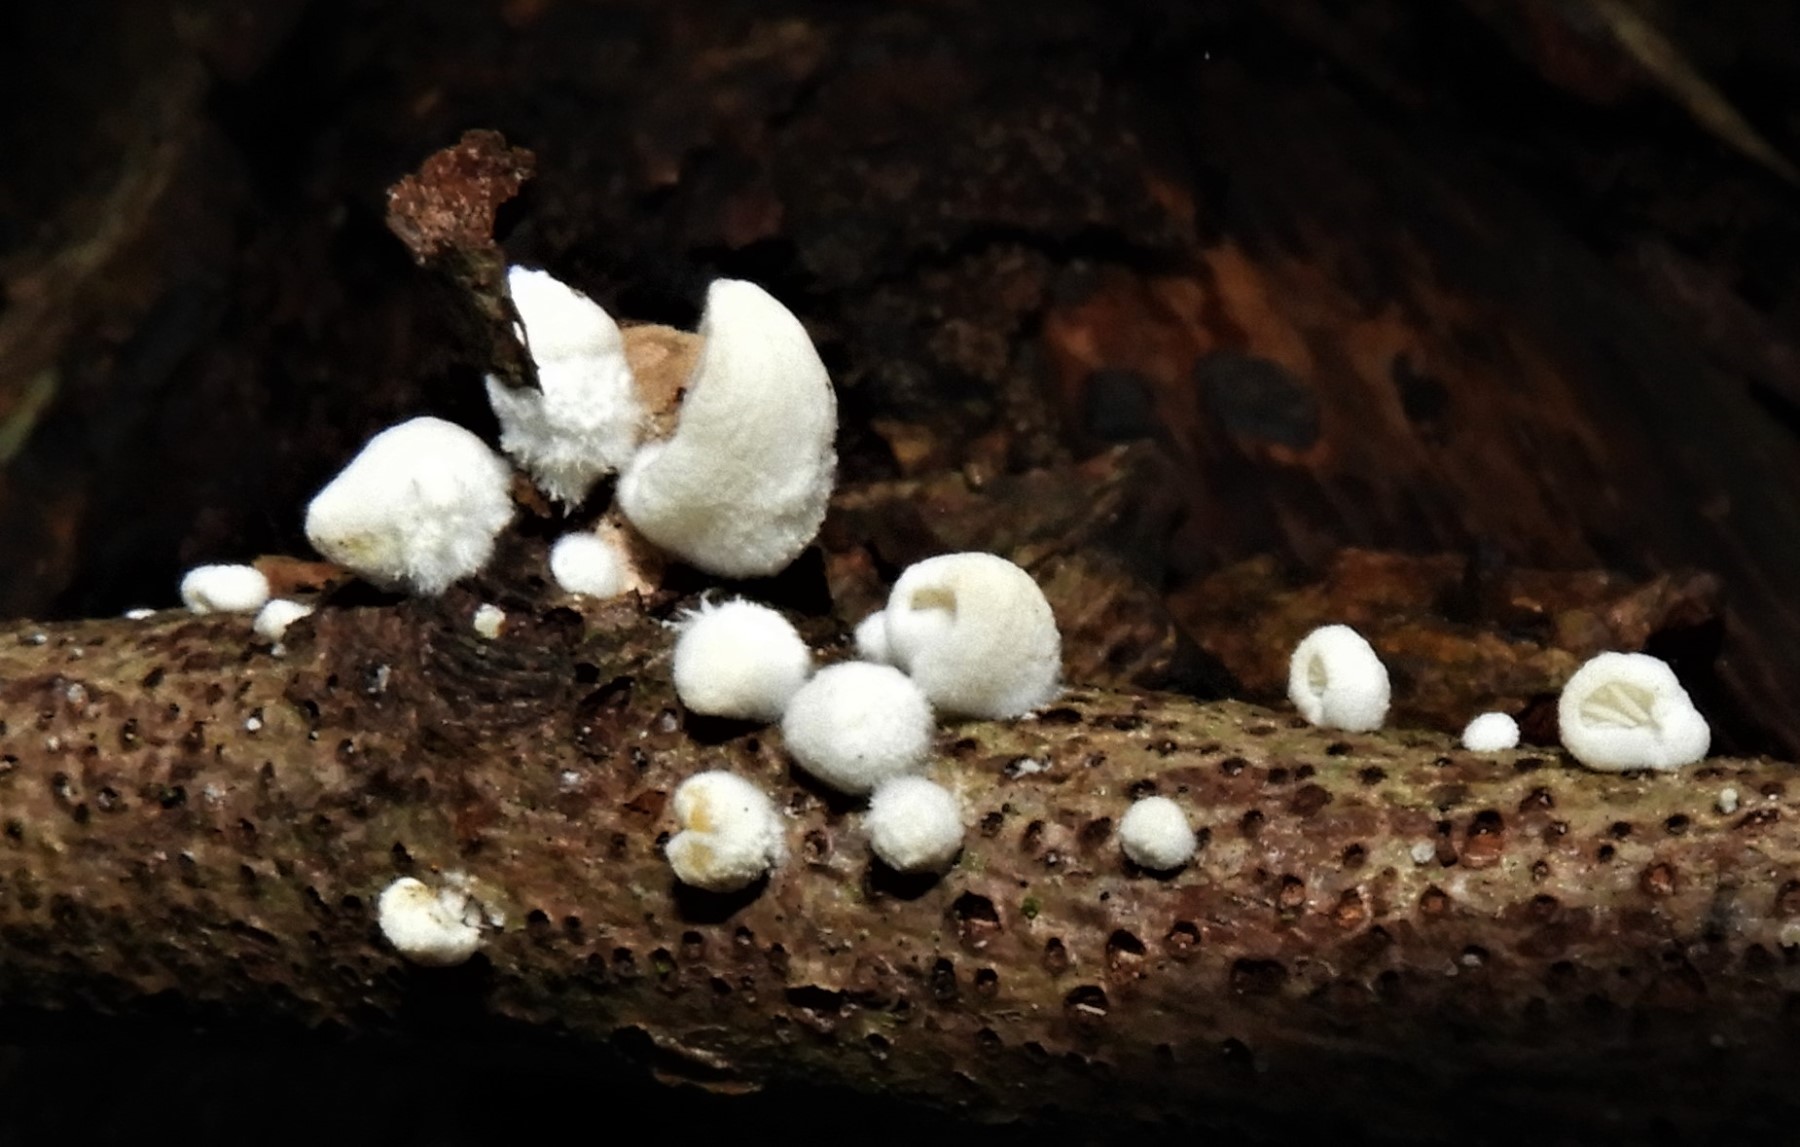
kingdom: Fungi
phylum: Basidiomycota
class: Agaricomycetes
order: Agaricales
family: Crepidotaceae
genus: Crepidotus
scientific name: Crepidotus
